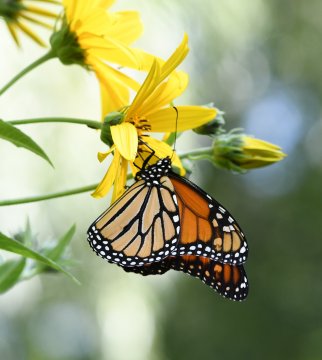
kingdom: Animalia
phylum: Arthropoda
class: Insecta
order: Lepidoptera
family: Nymphalidae
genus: Danaus
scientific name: Danaus plexippus
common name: Monarch
